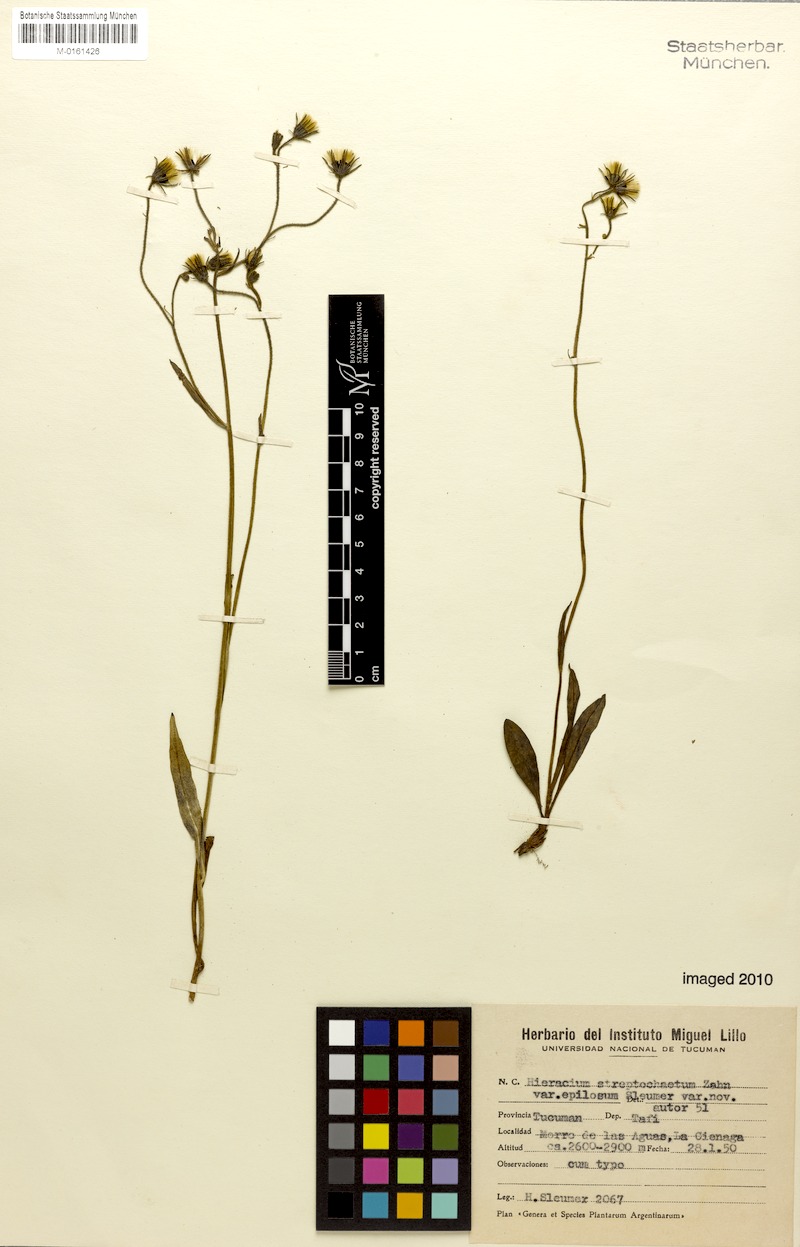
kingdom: Plantae
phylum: Tracheophyta
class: Magnoliopsida
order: Asterales
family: Asteraceae
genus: Hieracium
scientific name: Hieracium streptochaetum
